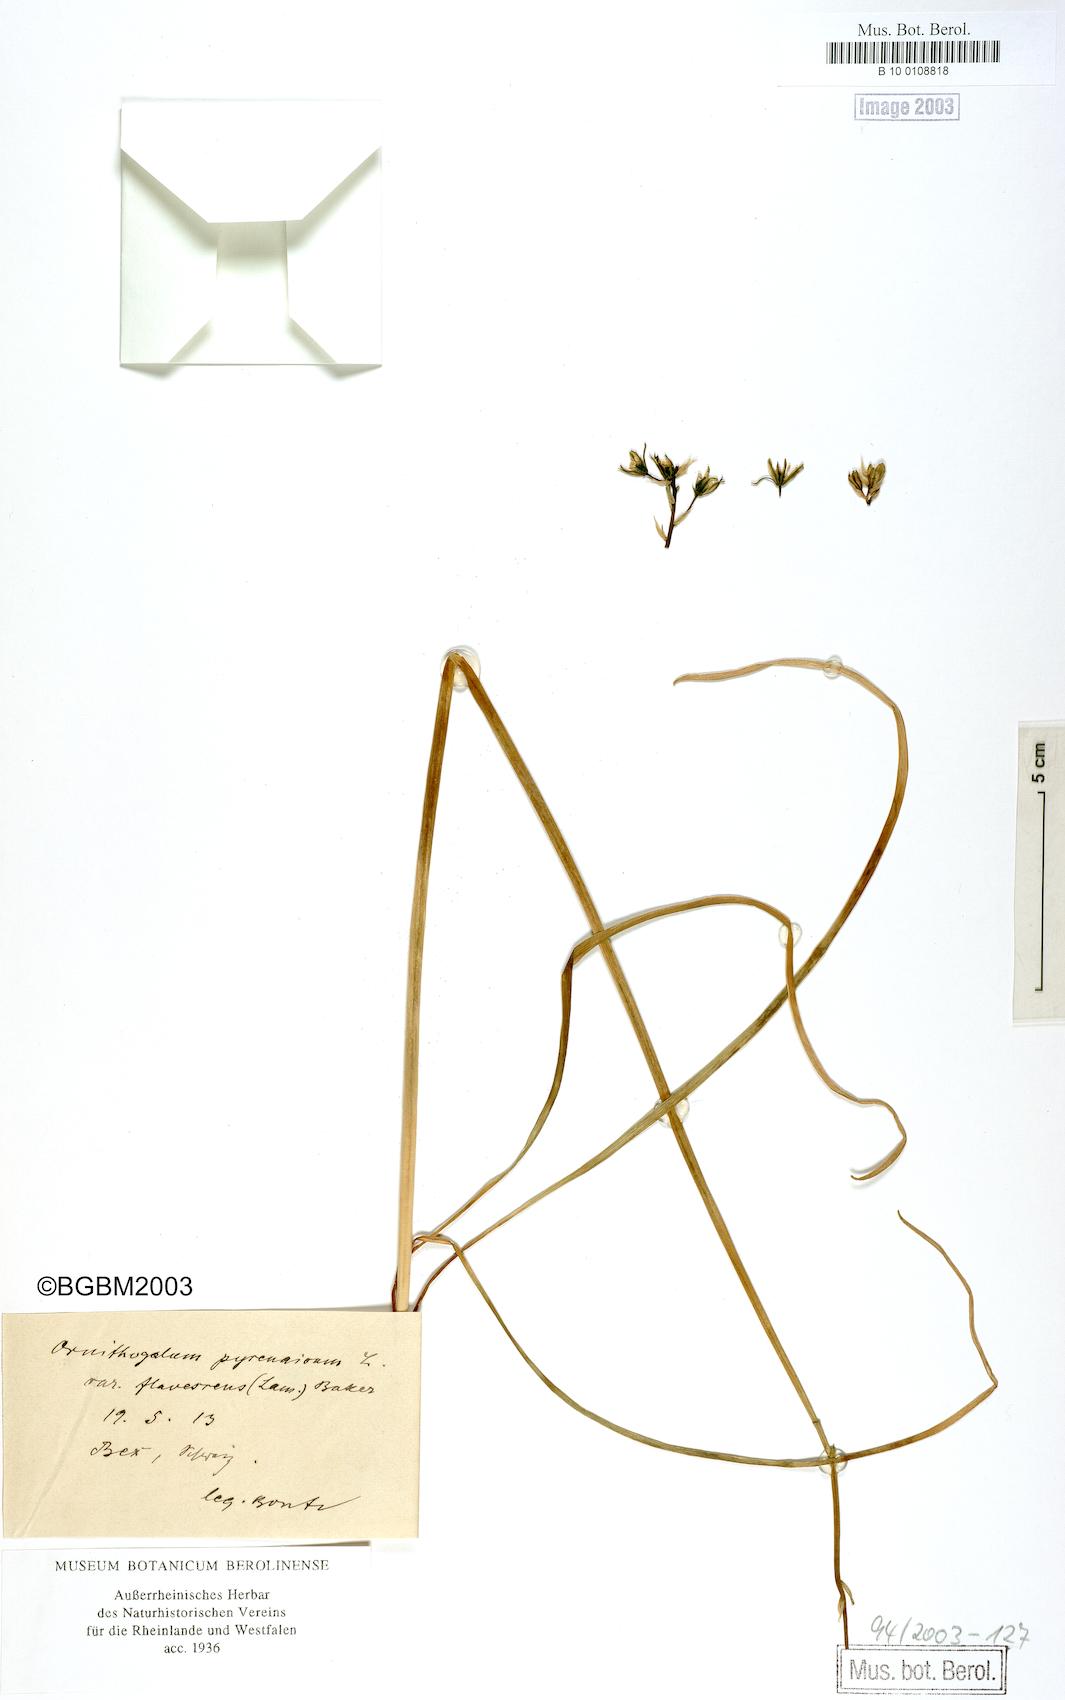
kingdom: Plantae
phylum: Tracheophyta
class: Liliopsida
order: Asparagales
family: Asparagaceae
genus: Ornithogalum
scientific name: Ornithogalum pyrenaicum
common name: Spiked star-of-bethlehem
